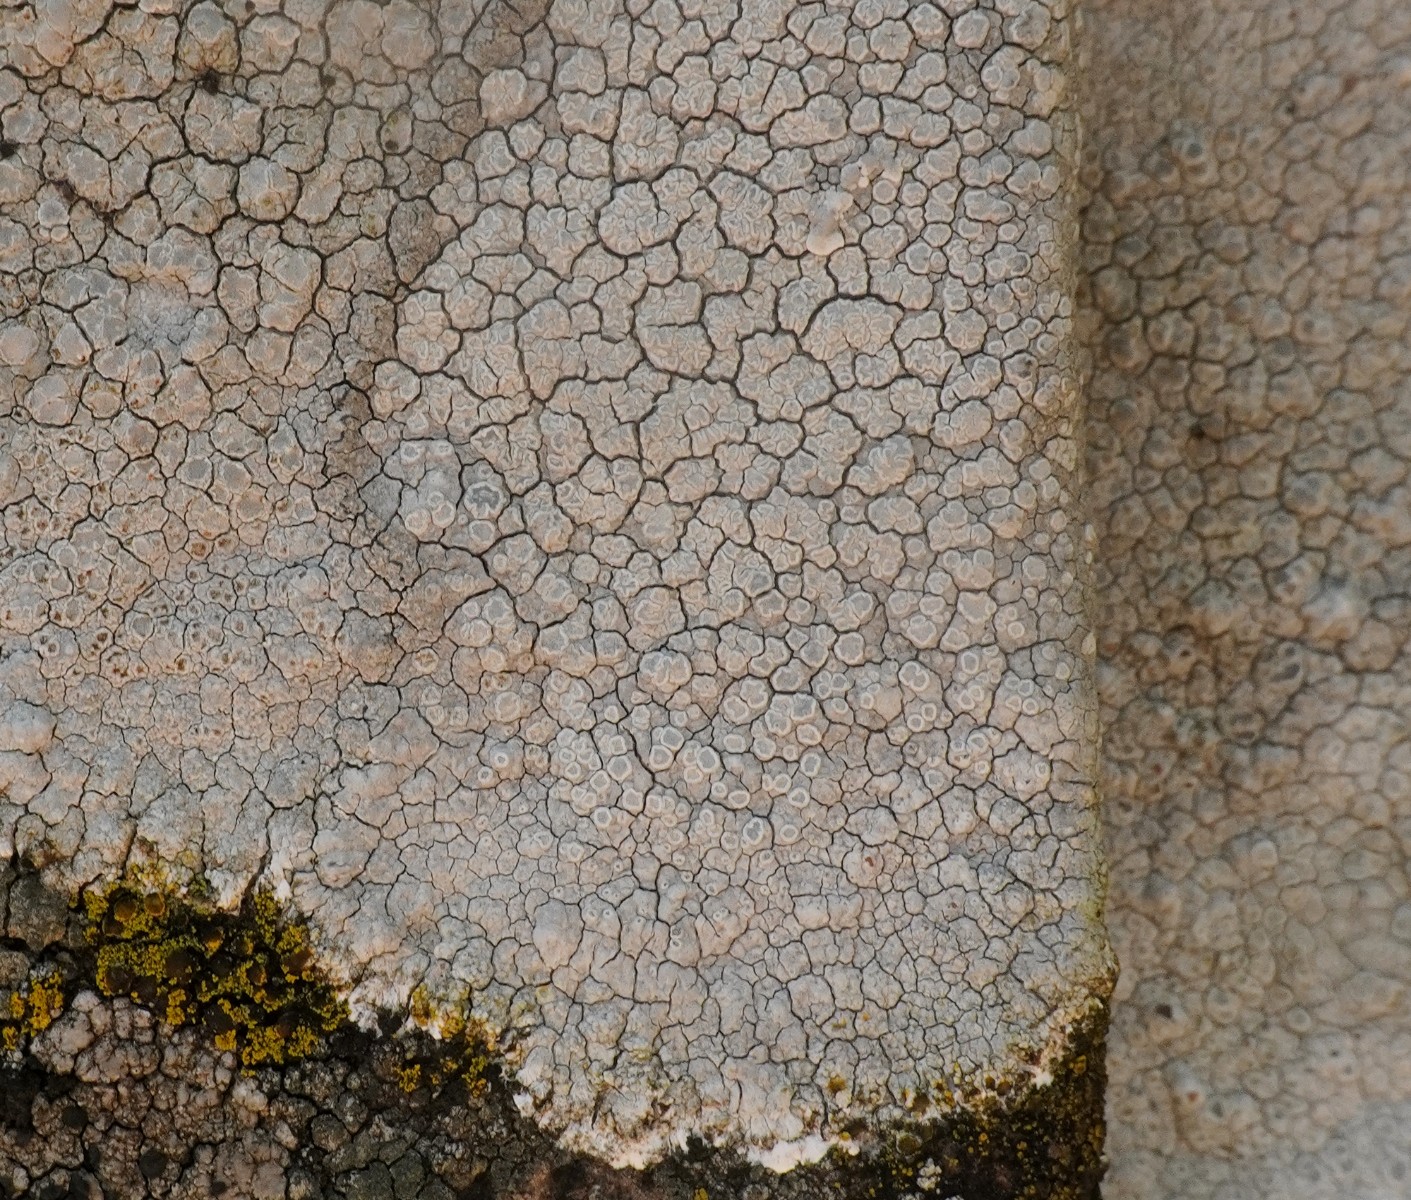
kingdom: Fungi
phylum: Ascomycota
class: Lecanoromycetes
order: Lecanorales
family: Lecanoraceae
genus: Glaucomaria
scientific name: Glaucomaria rupicola
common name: stengærde-kantskivelav
